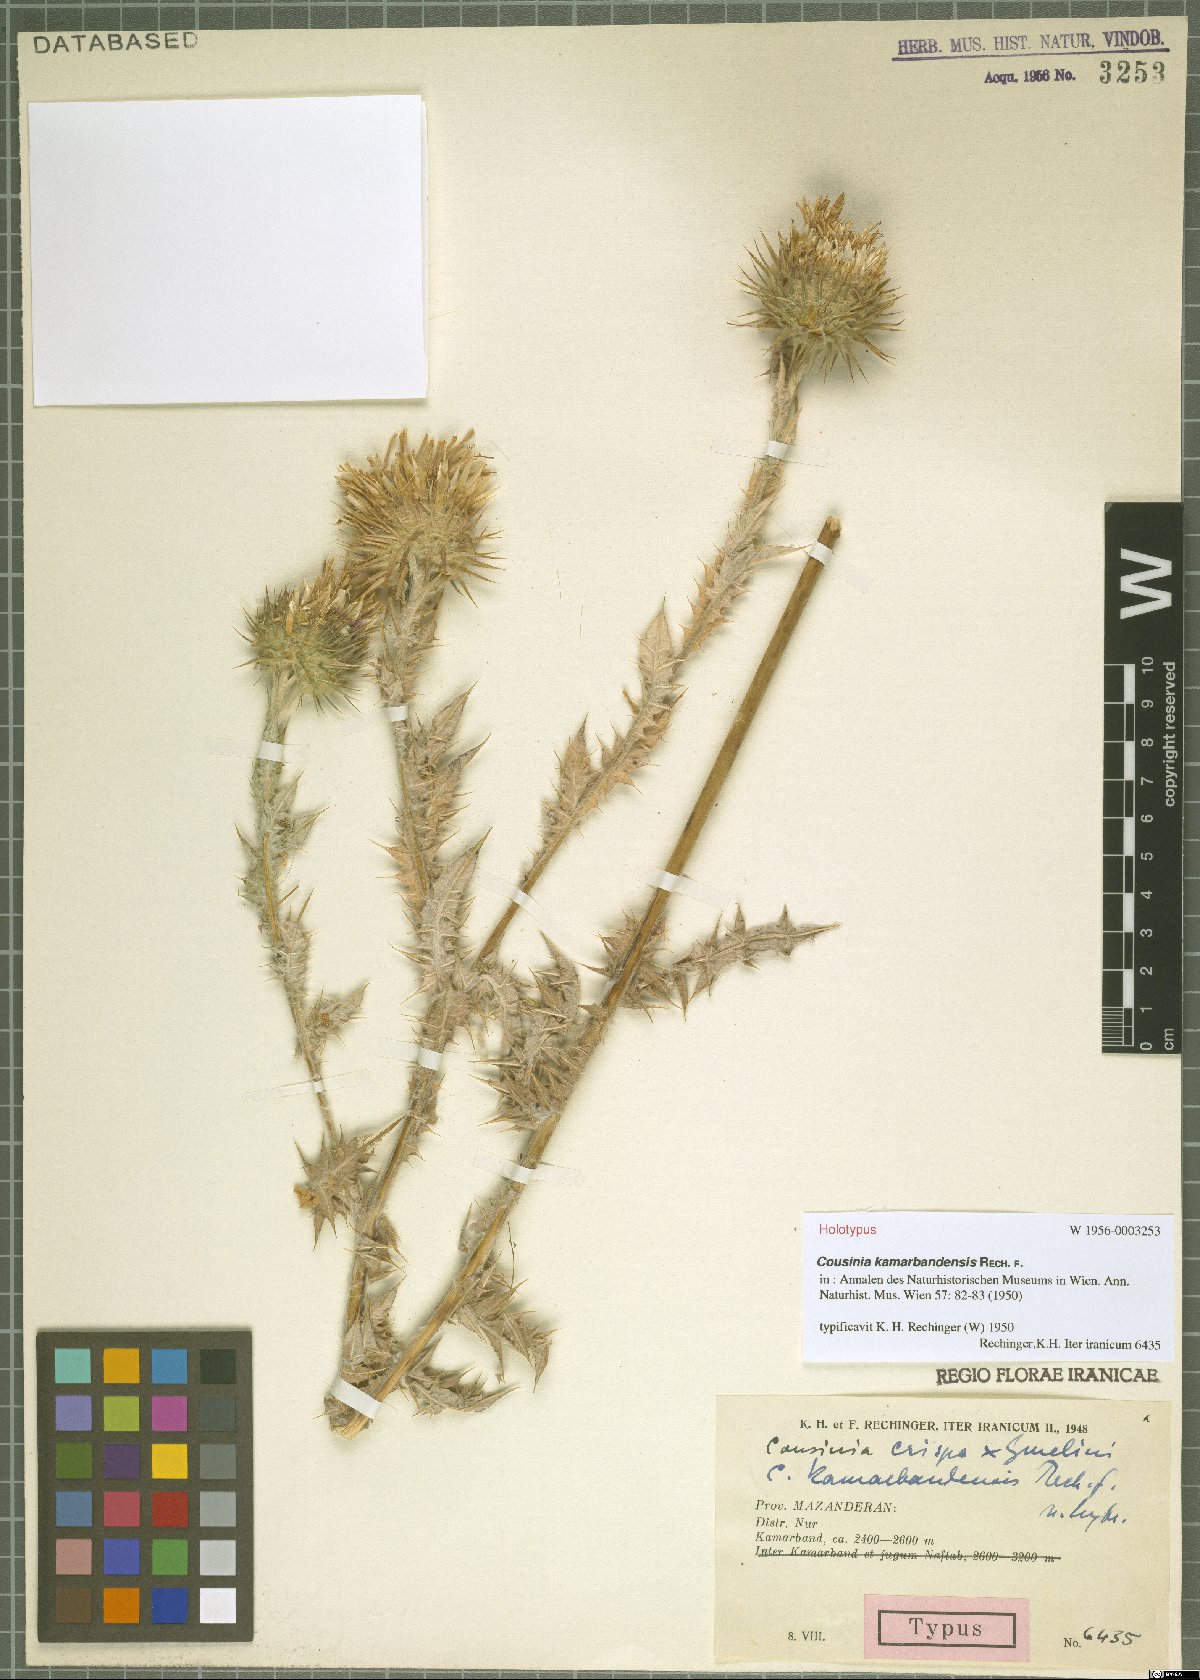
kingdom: Plantae
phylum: Tracheophyta
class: Magnoliopsida
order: Asterales
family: Asteraceae
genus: Cousinia
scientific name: Cousinia kamarbandensis
